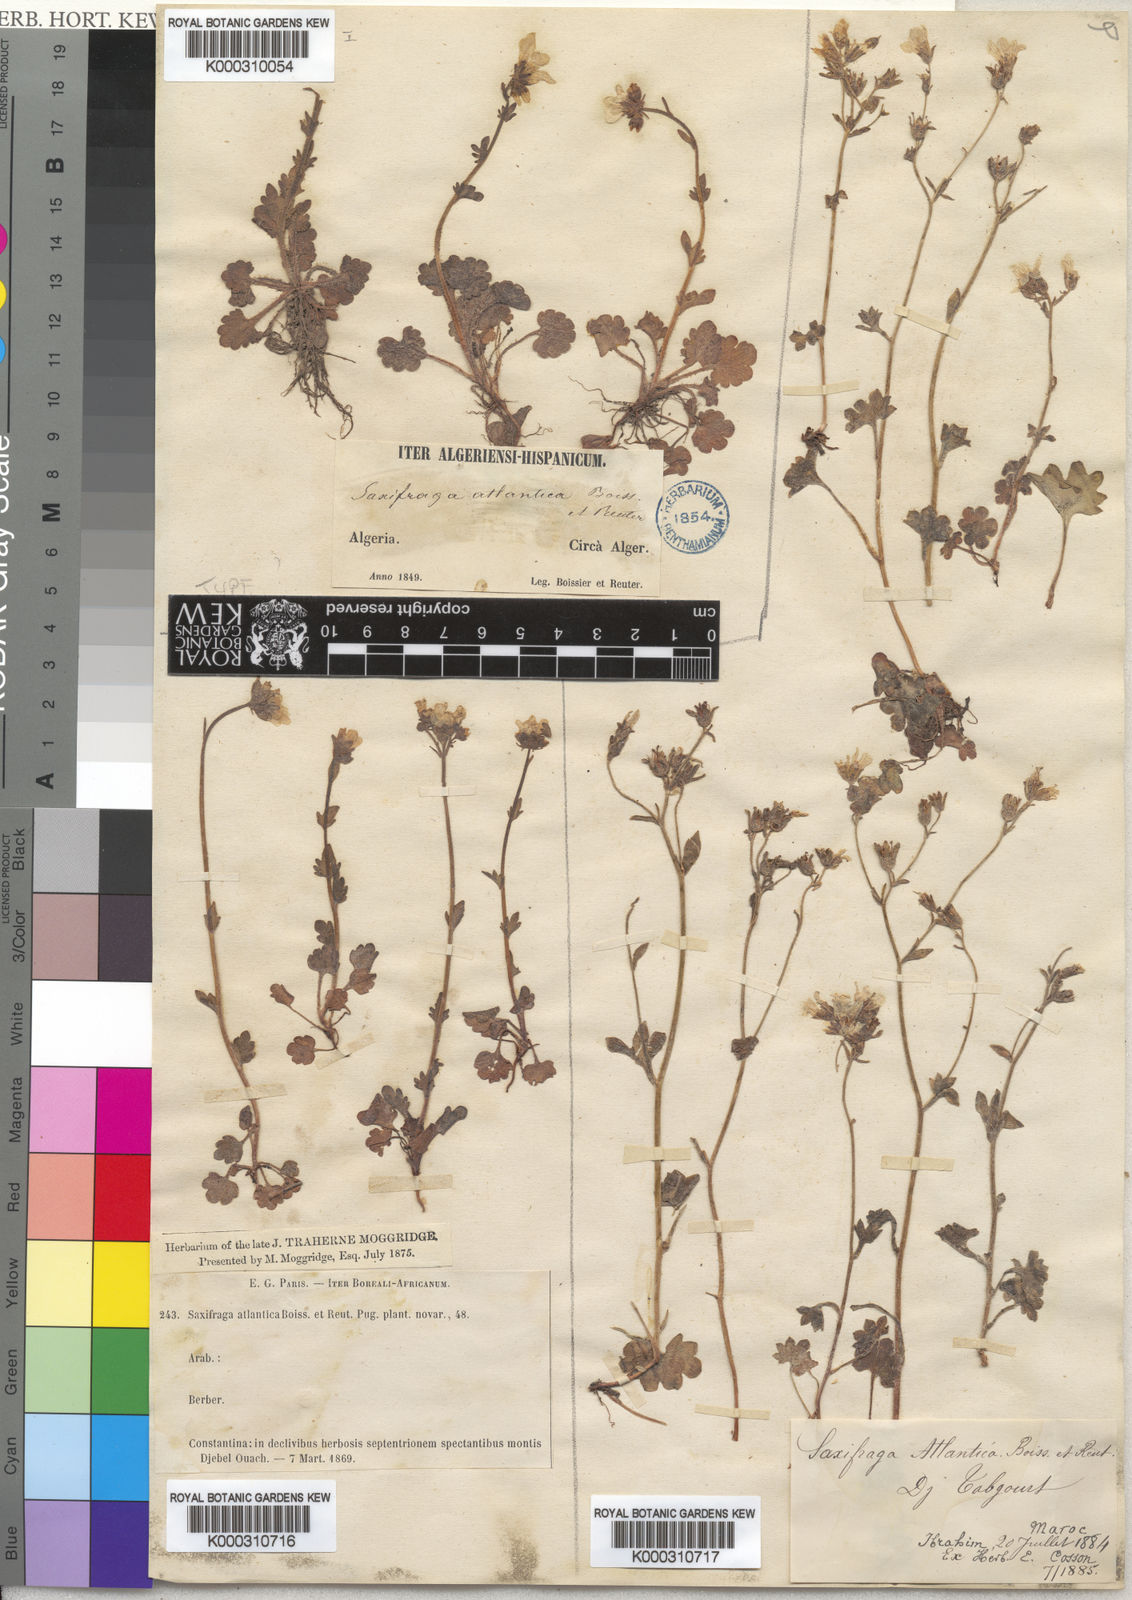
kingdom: Plantae
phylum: Tracheophyta
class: Magnoliopsida
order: Saxifragales
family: Saxifragaceae
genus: Saxifraga
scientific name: Saxifraga carpetana
